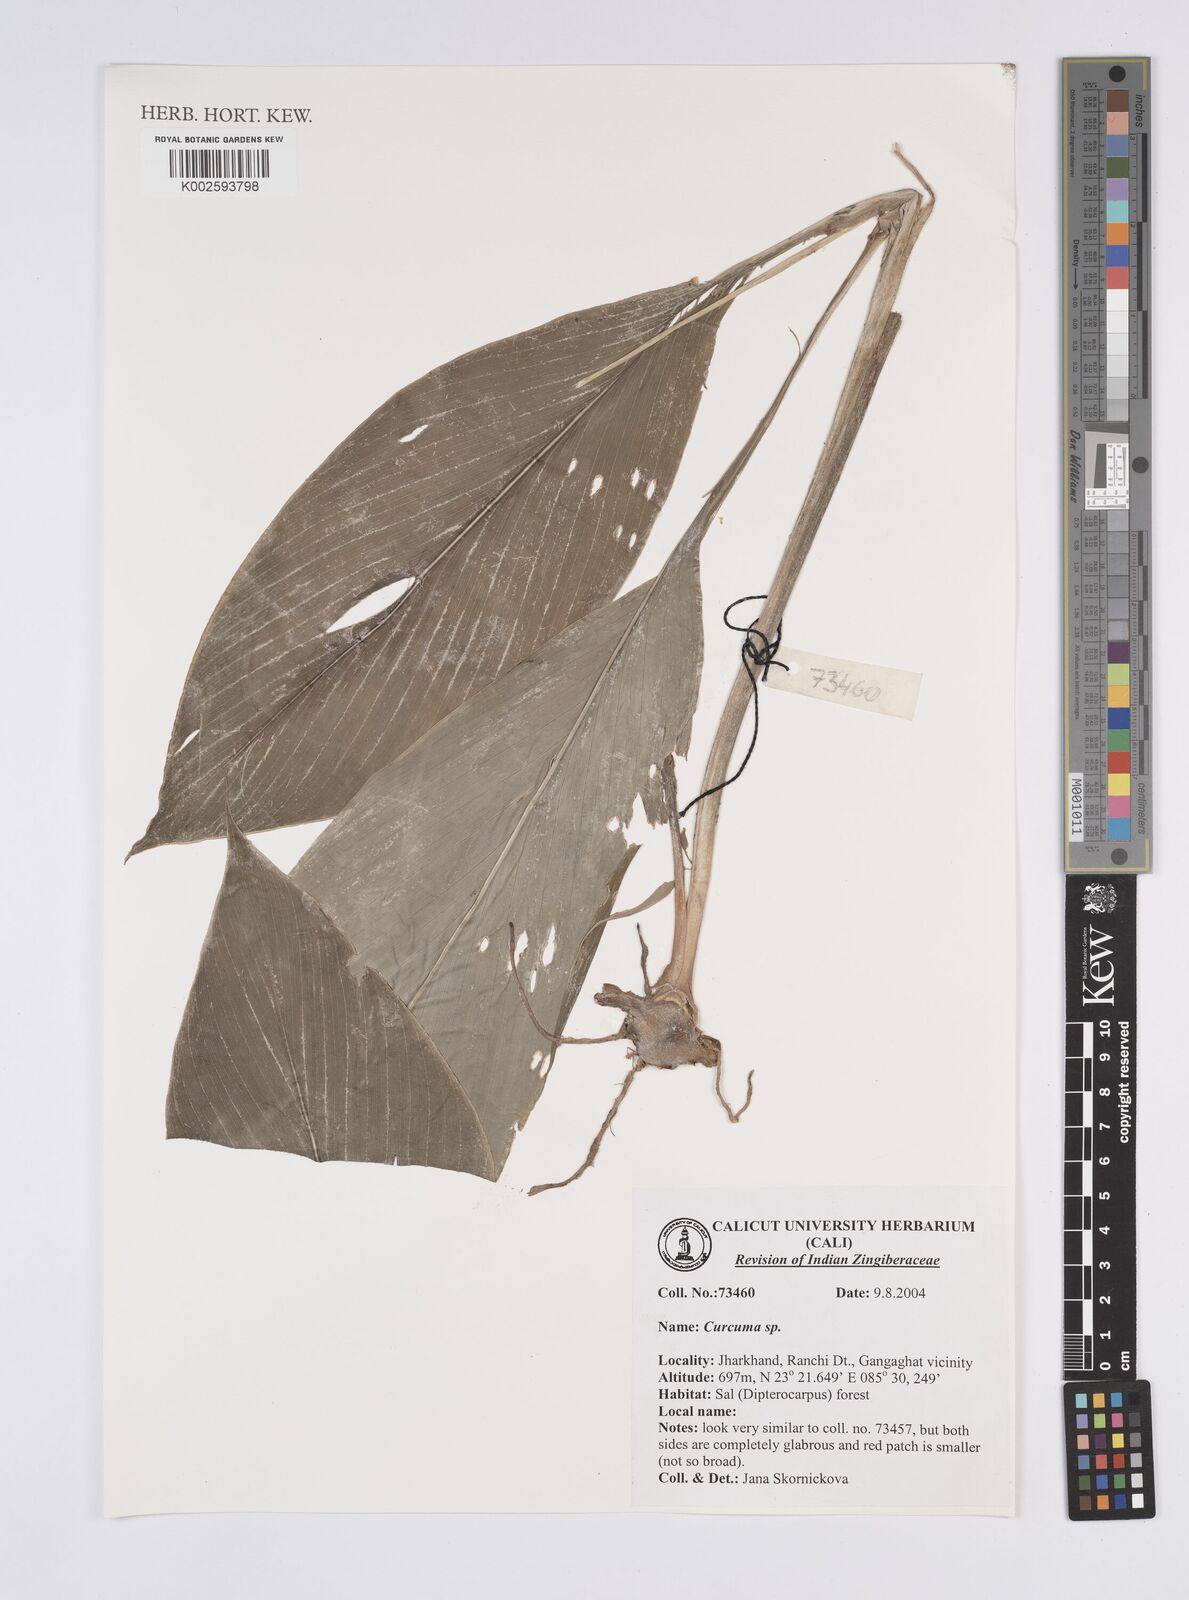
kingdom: Plantae
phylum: Tracheophyta
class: Liliopsida
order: Zingiberales
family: Zingiberaceae
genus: Curcuma
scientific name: Curcuma
